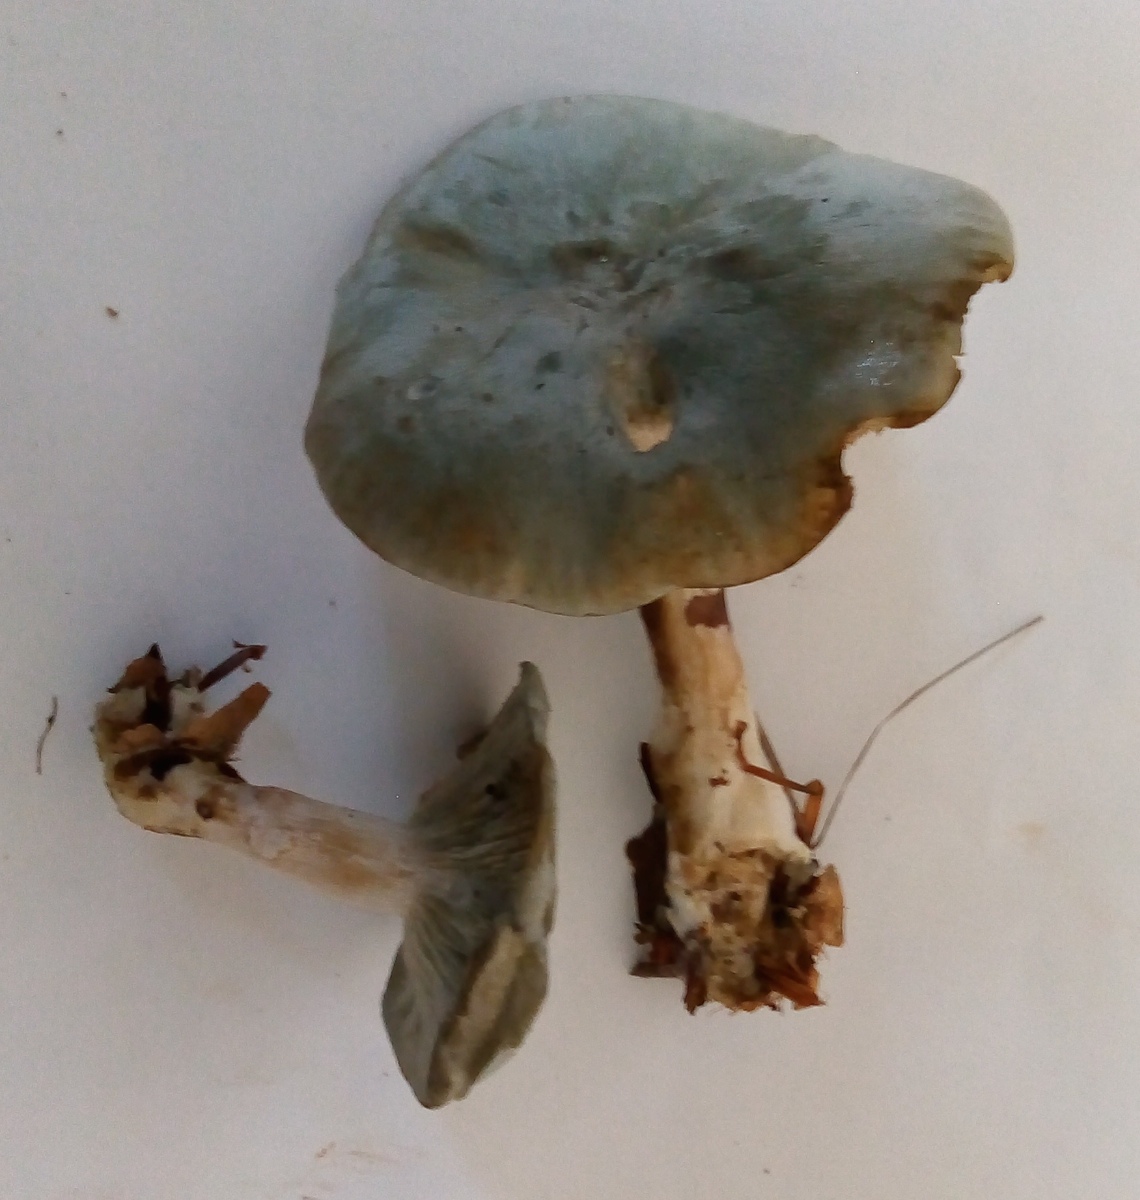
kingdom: Fungi
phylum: Basidiomycota
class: Agaricomycetes
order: Agaricales
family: Tricholomataceae
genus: Clitocybe
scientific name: Clitocybe odora
